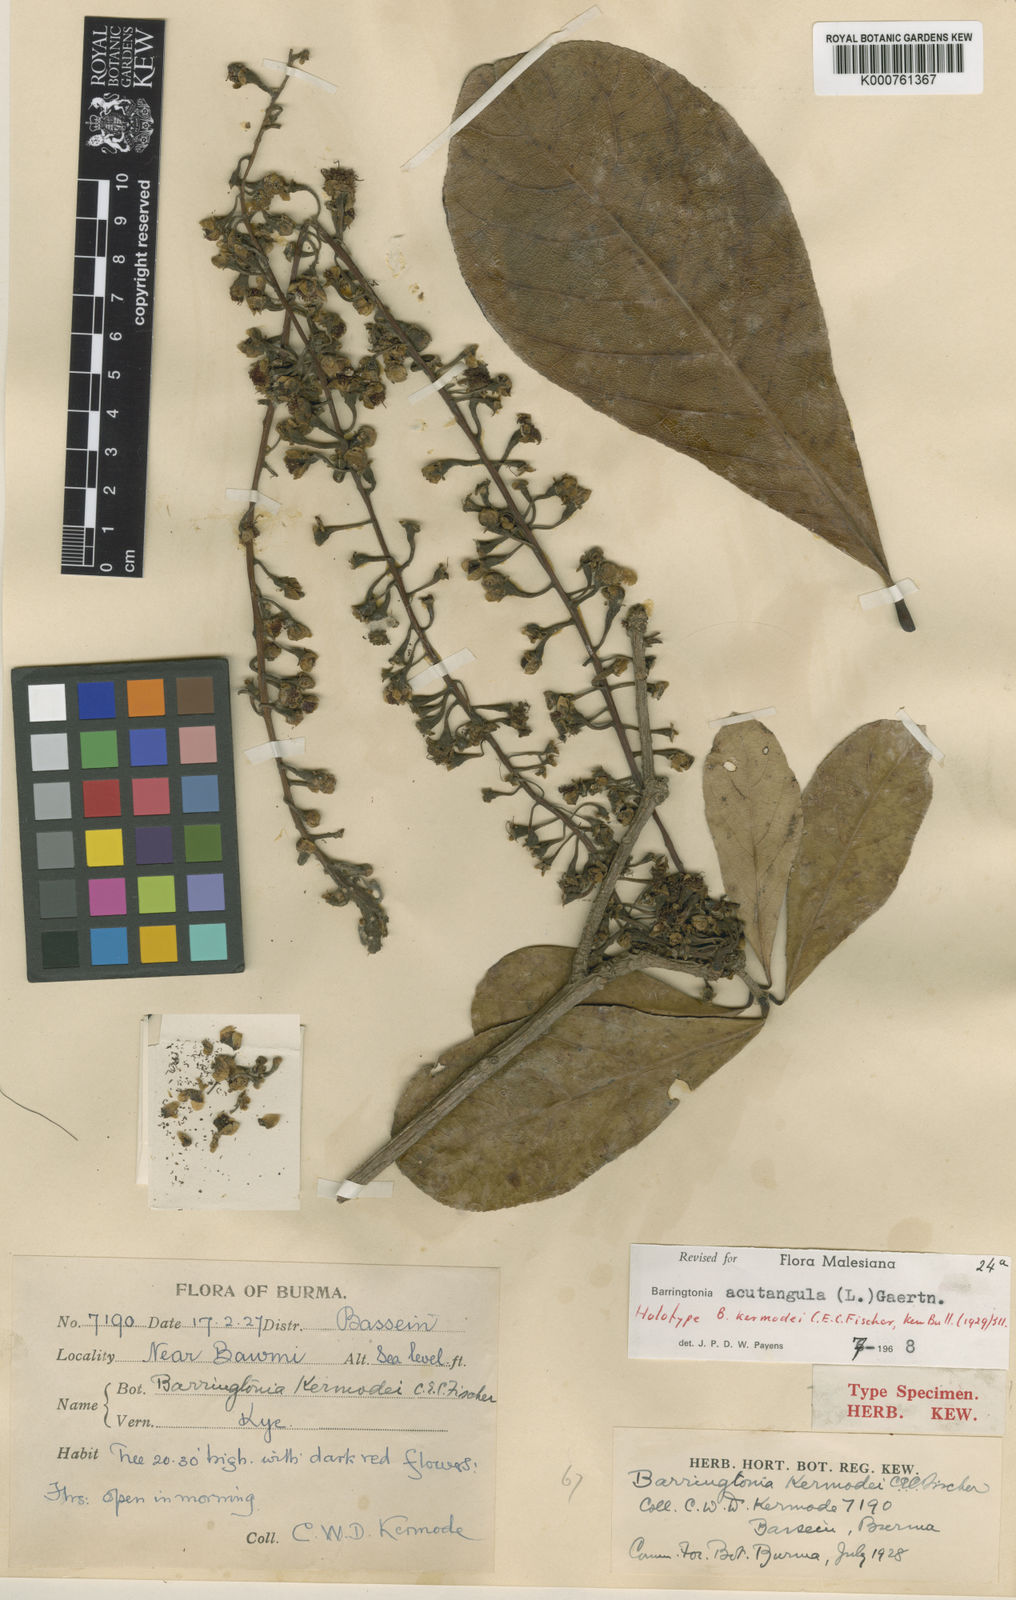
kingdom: Plantae
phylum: Tracheophyta
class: Magnoliopsida
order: Ericales
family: Lecythidaceae
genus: Barringtonia
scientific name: Barringtonia acutangula
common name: Freshwater mangrove
